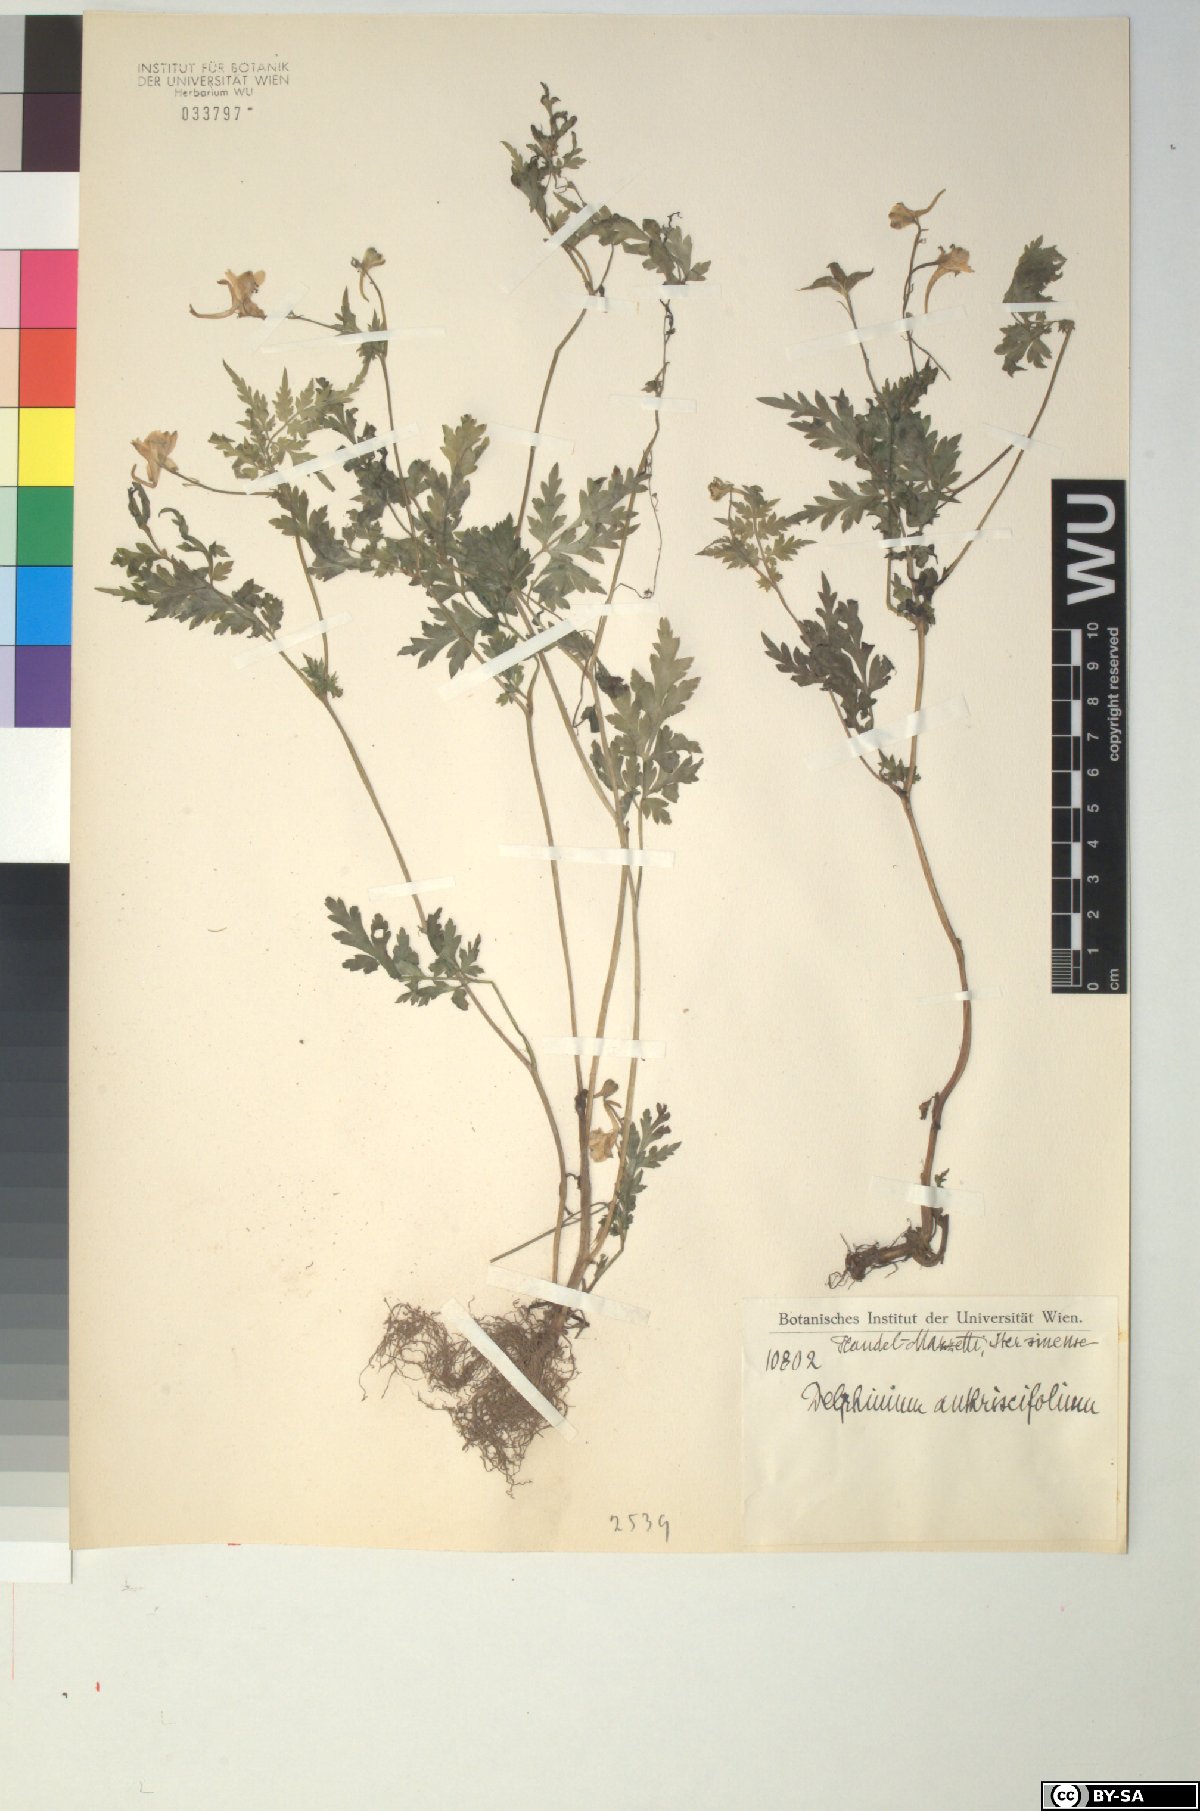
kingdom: Plantae
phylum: Tracheophyta
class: Magnoliopsida
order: Ranunculales
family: Ranunculaceae
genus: Delphinium
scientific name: Delphinium anthriscifolium
